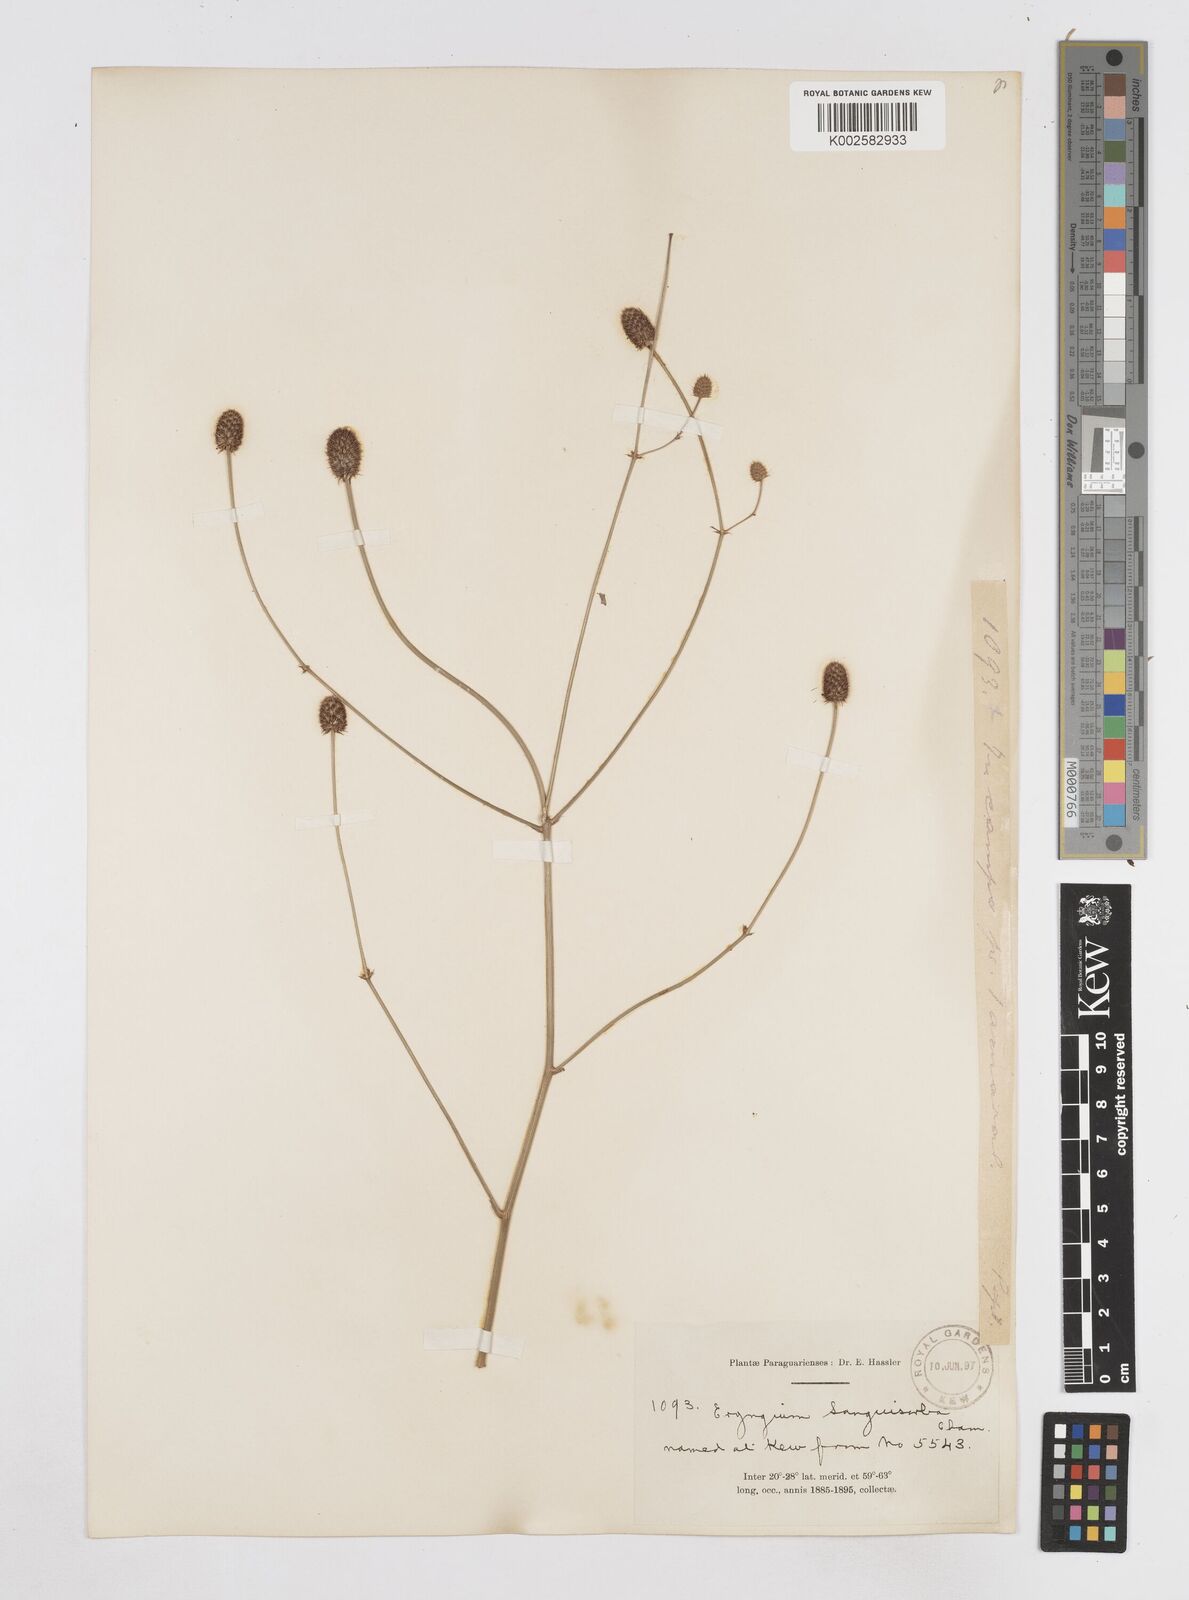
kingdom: Plantae
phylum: Tracheophyta
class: Magnoliopsida
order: Apiales
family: Apiaceae
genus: Eryngium
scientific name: Eryngium sanguisorba
